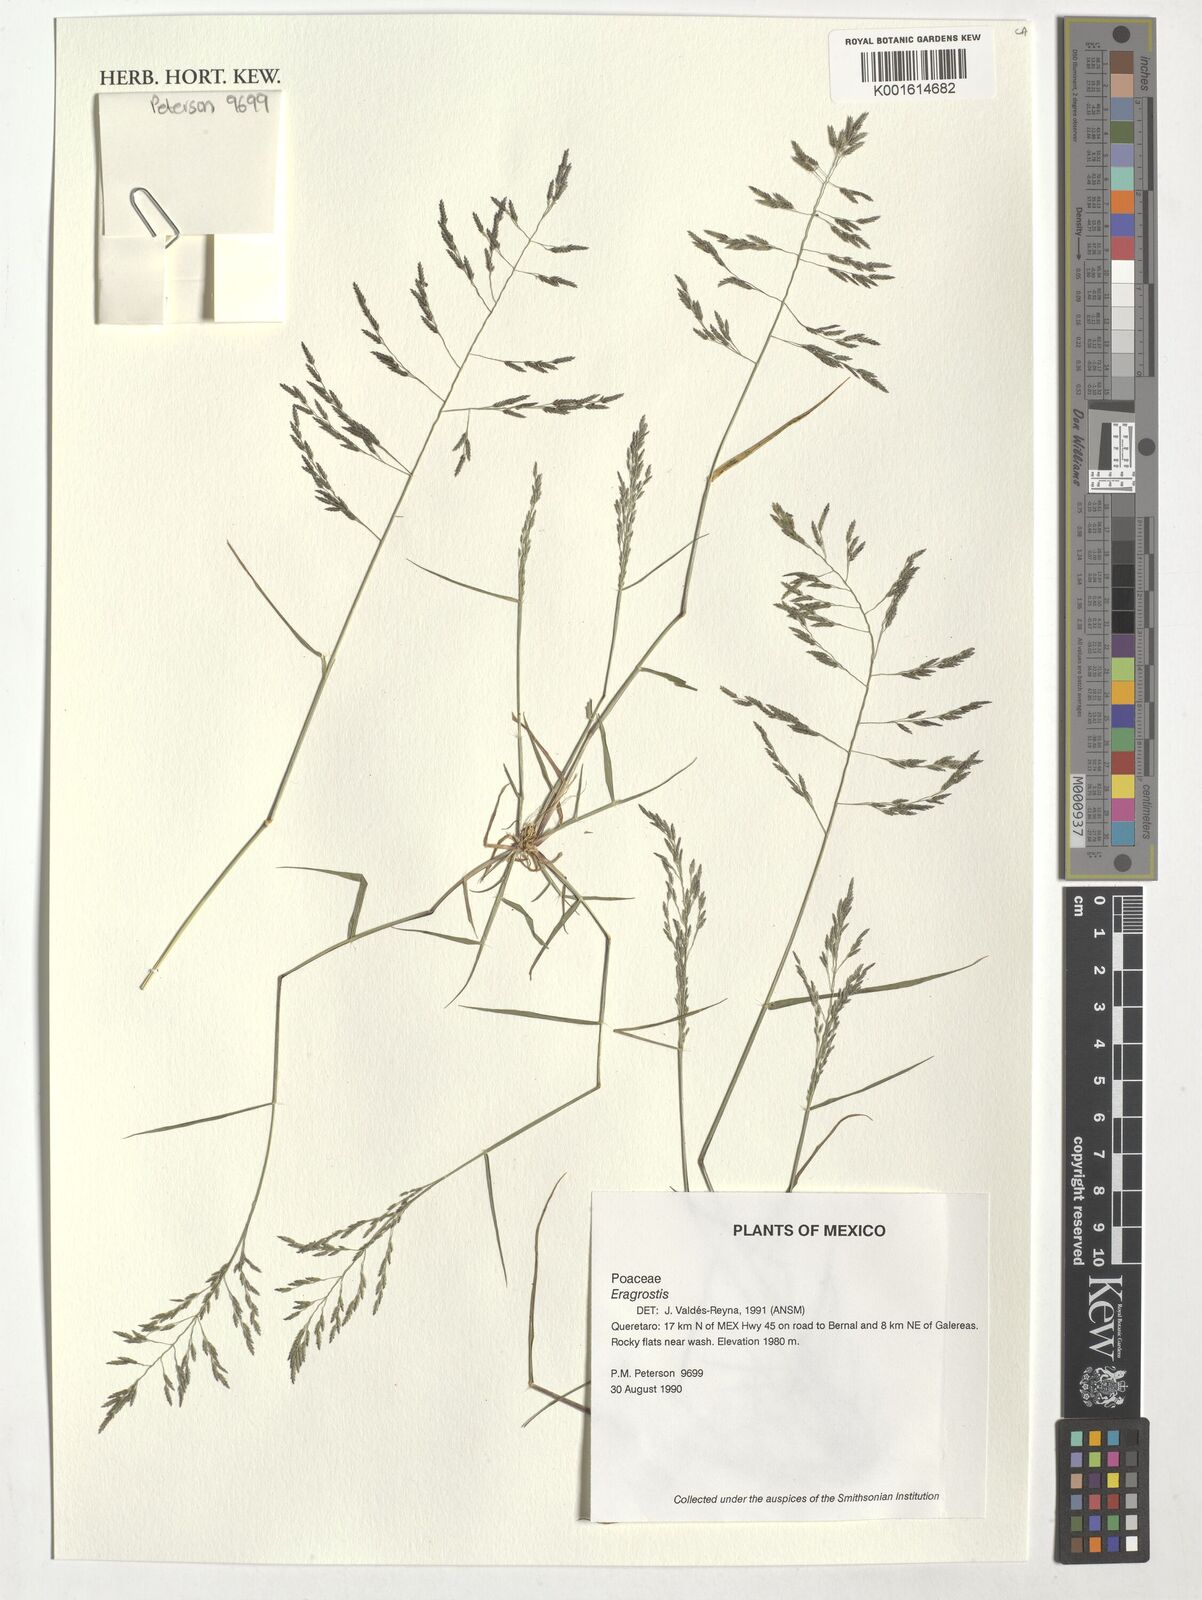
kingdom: Plantae
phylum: Tracheophyta
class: Liliopsida
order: Poales
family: Poaceae
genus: Eragrostis
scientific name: Eragrostis
